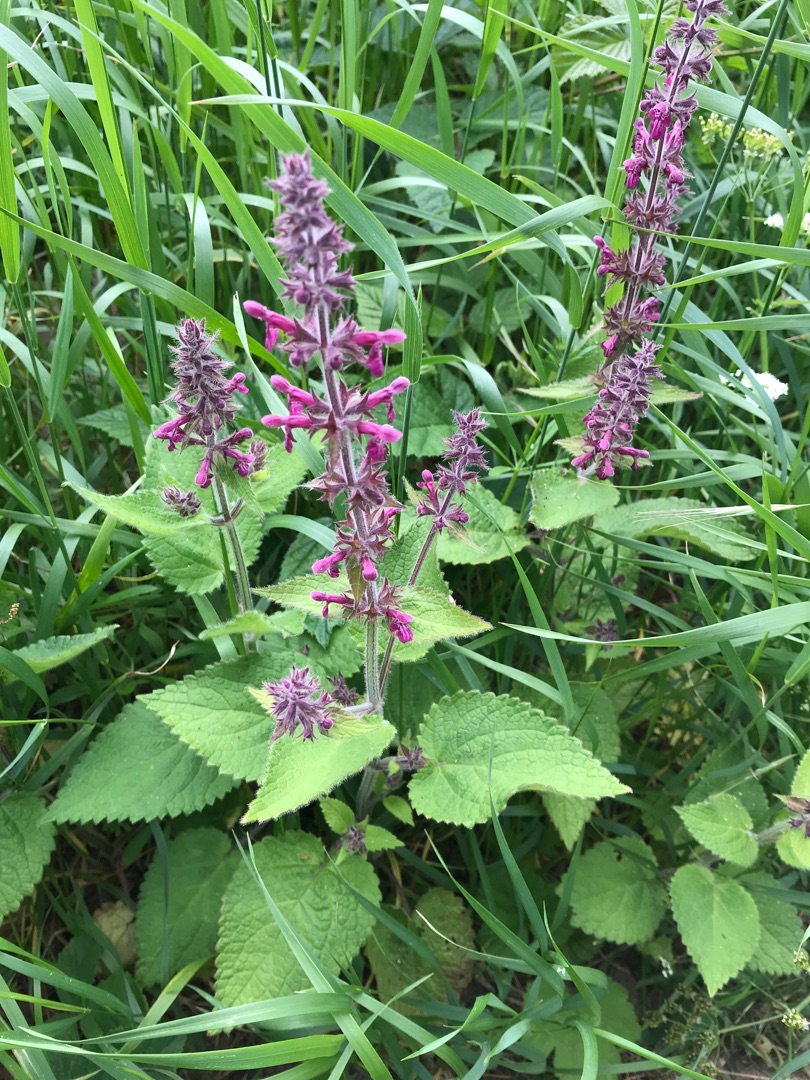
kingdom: Plantae
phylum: Tracheophyta
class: Magnoliopsida
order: Lamiales
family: Lamiaceae
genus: Stachys
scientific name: Stachys sylvatica
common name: Skov-galtetand
